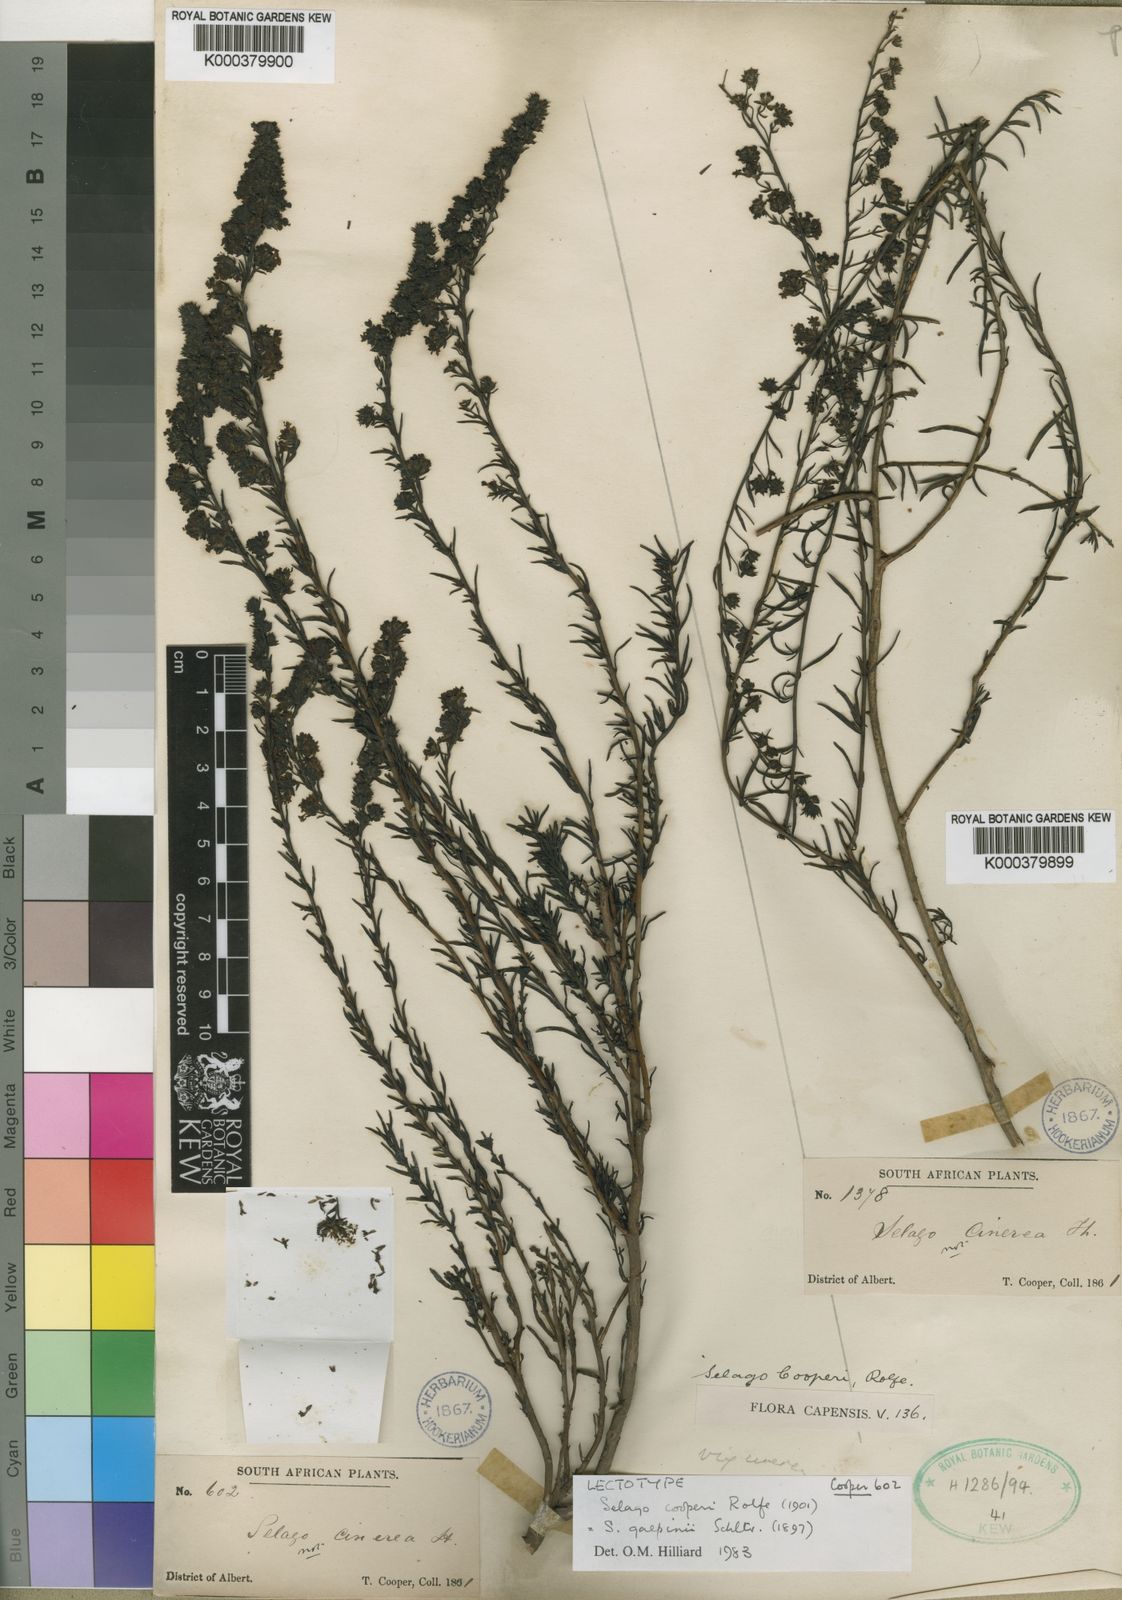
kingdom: Plantae
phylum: Tracheophyta
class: Magnoliopsida
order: Lamiales
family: Scrophulariaceae
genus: Selago
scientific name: Selago galpinii
